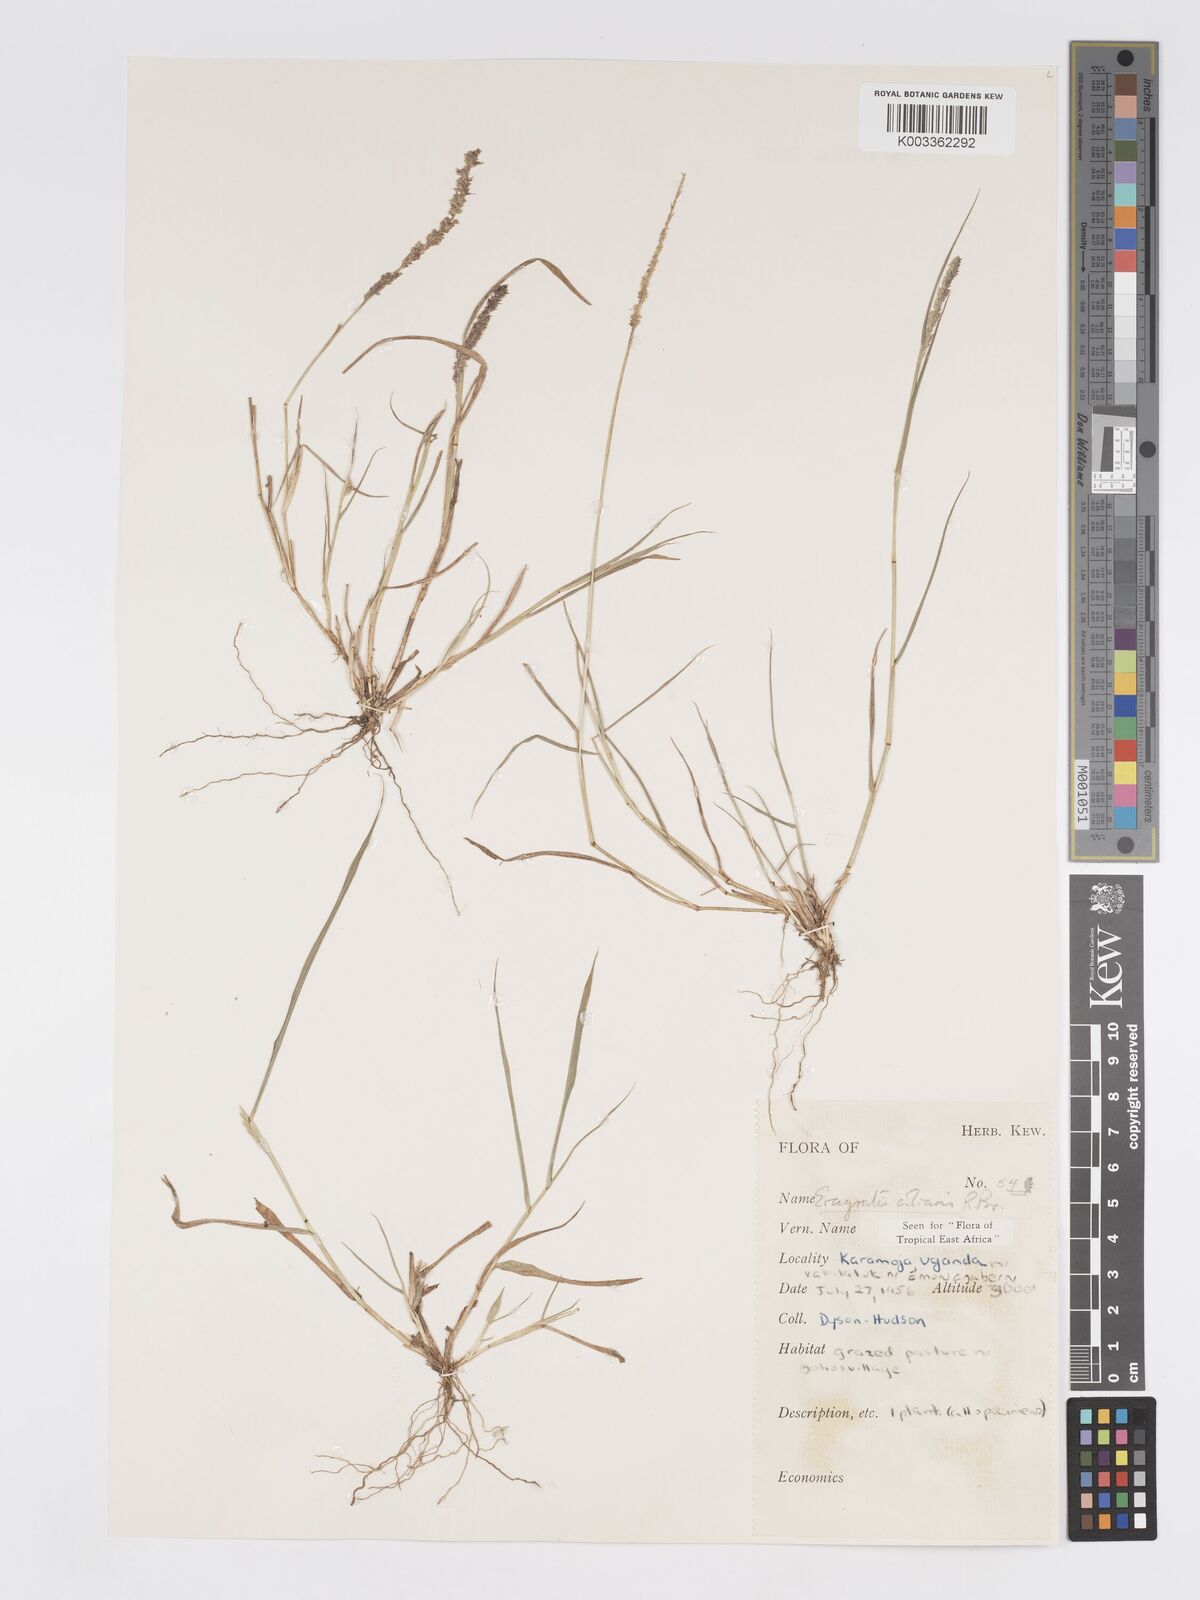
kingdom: Plantae
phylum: Tracheophyta
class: Liliopsida
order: Poales
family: Poaceae
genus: Eragrostis
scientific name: Eragrostis ciliaris
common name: Gophertail lovegrass
